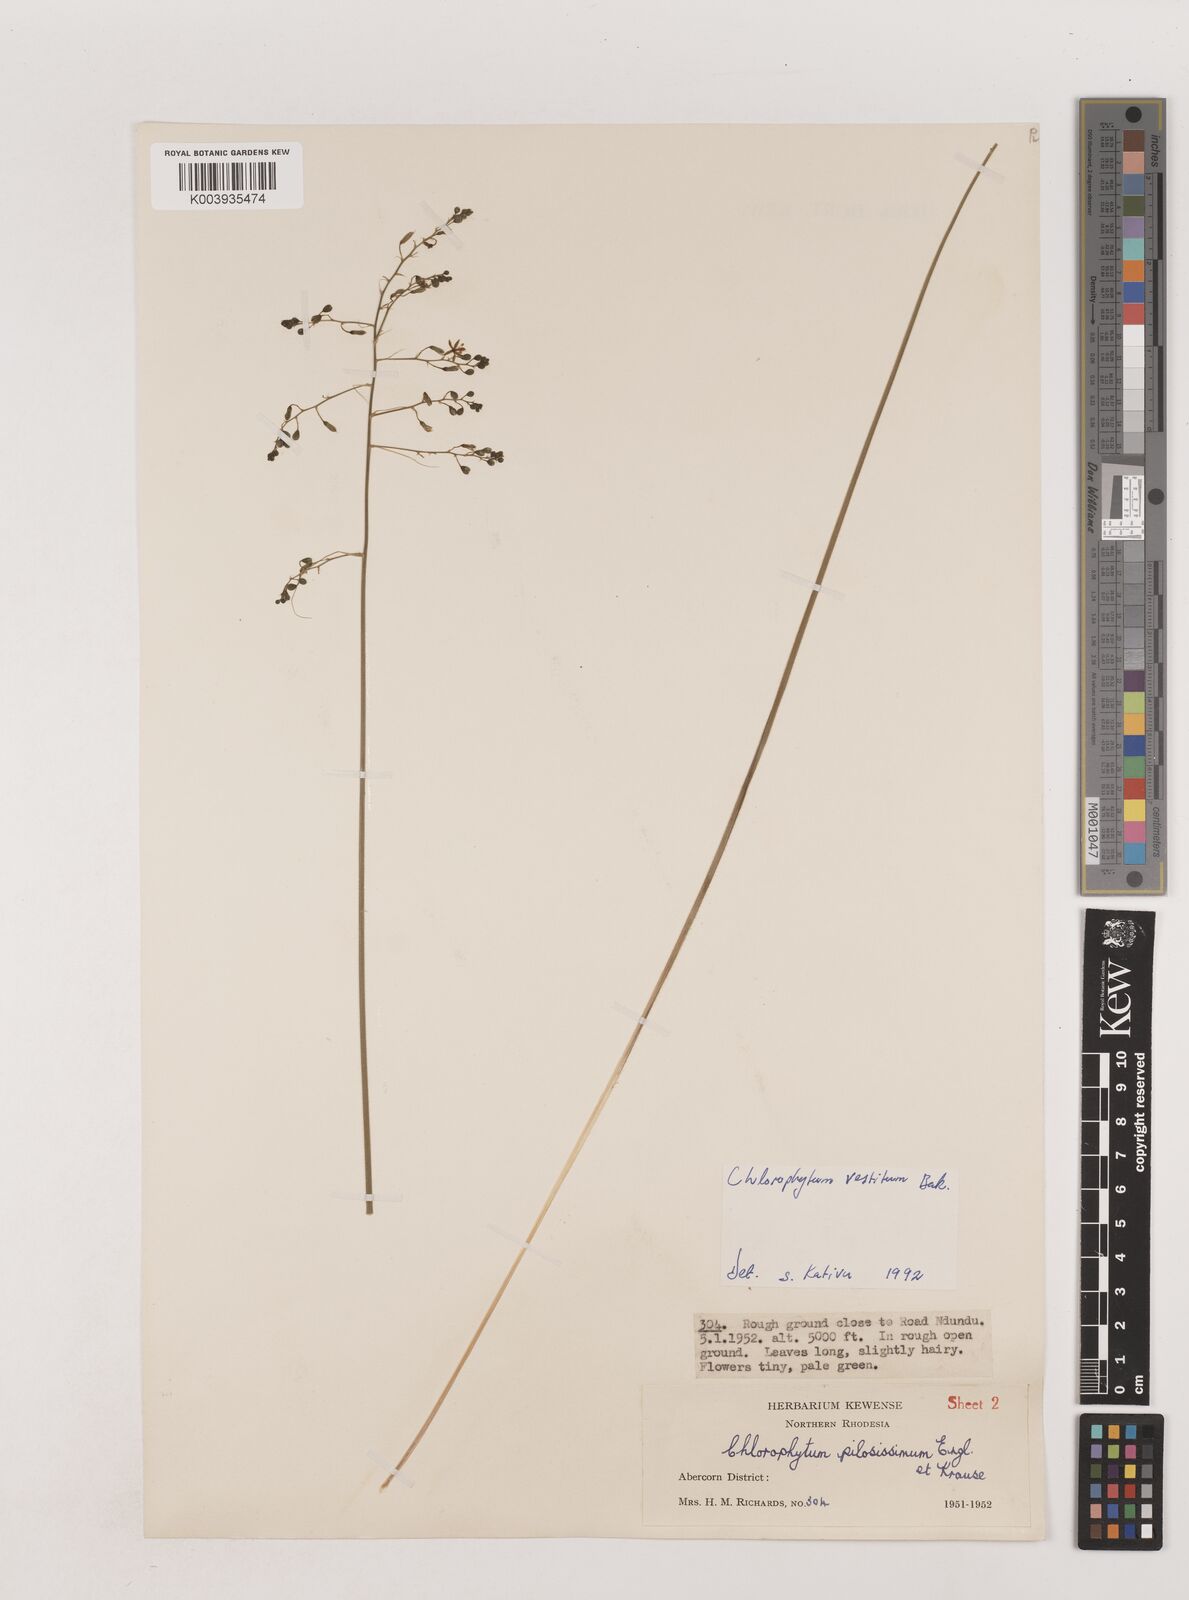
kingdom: Plantae
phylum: Tracheophyta
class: Liliopsida
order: Asparagales
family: Asparagaceae
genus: Chlorophytum
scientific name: Chlorophytum vestitum
